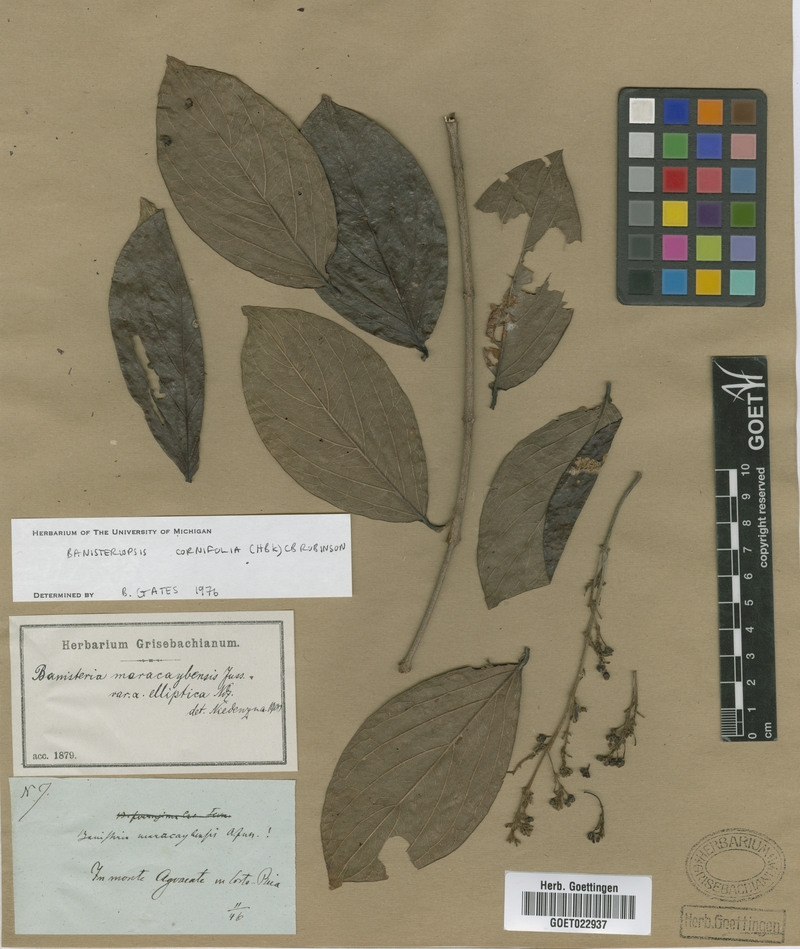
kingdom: Plantae
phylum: Tracheophyta
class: Magnoliopsida
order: Malpighiales
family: Malpighiaceae
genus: Bronwenia
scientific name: Bronwenia cornifolia
